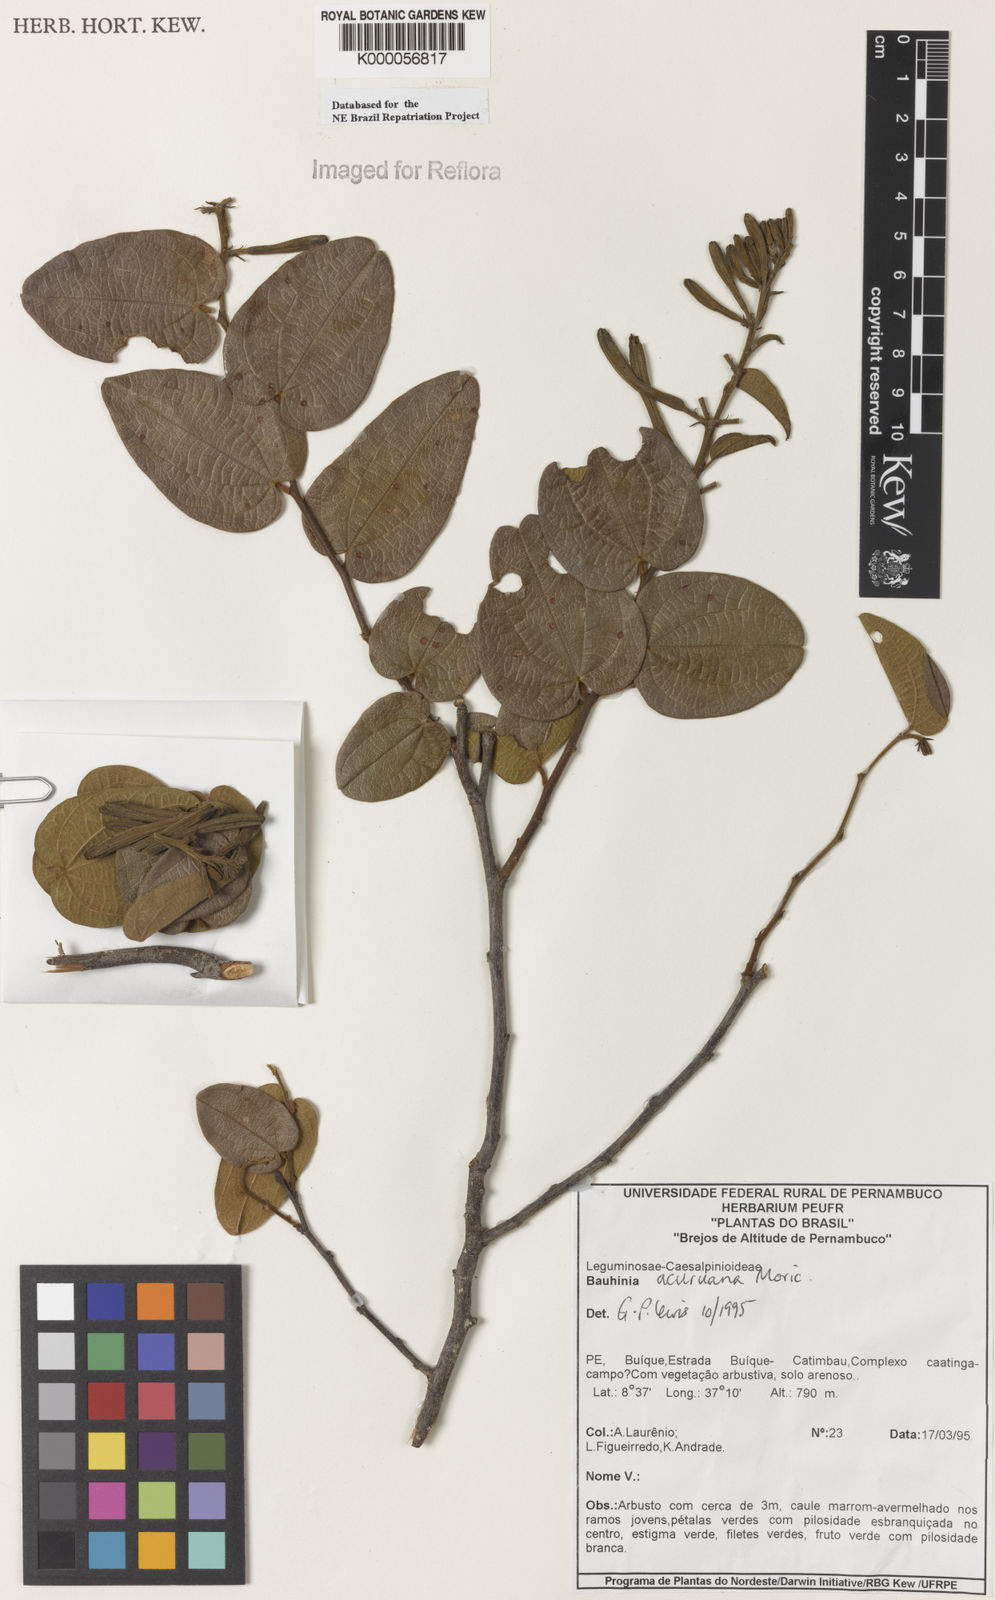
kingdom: Plantae
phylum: Tracheophyta
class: Magnoliopsida
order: Fabales
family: Fabaceae
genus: Bauhinia
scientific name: Bauhinia acuruana
